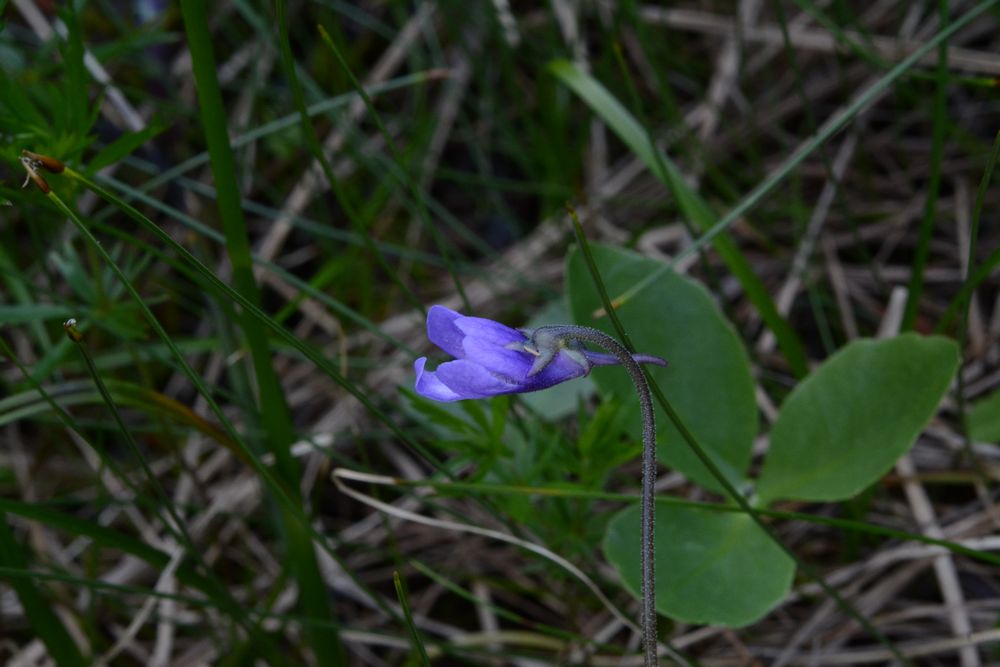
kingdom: Plantae
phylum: Tracheophyta
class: Magnoliopsida
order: Lamiales
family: Lentibulariaceae
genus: Pinguicula
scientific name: Pinguicula vulgaris
